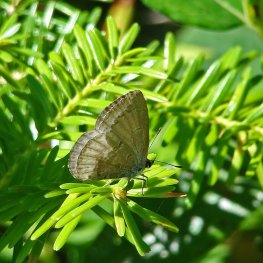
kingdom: Animalia
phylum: Arthropoda
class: Insecta
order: Lepidoptera
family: Lycaenidae
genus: Celastrina
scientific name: Celastrina lucia
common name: Northern Spring Azure
